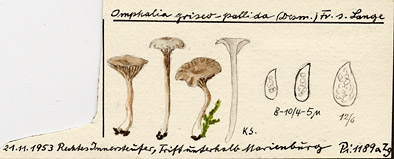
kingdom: Fungi
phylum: Basidiomycota
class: Agaricomycetes
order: Agaricales
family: Hygrophoraceae
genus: Arrhenia
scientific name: Arrhenia griseopallida
